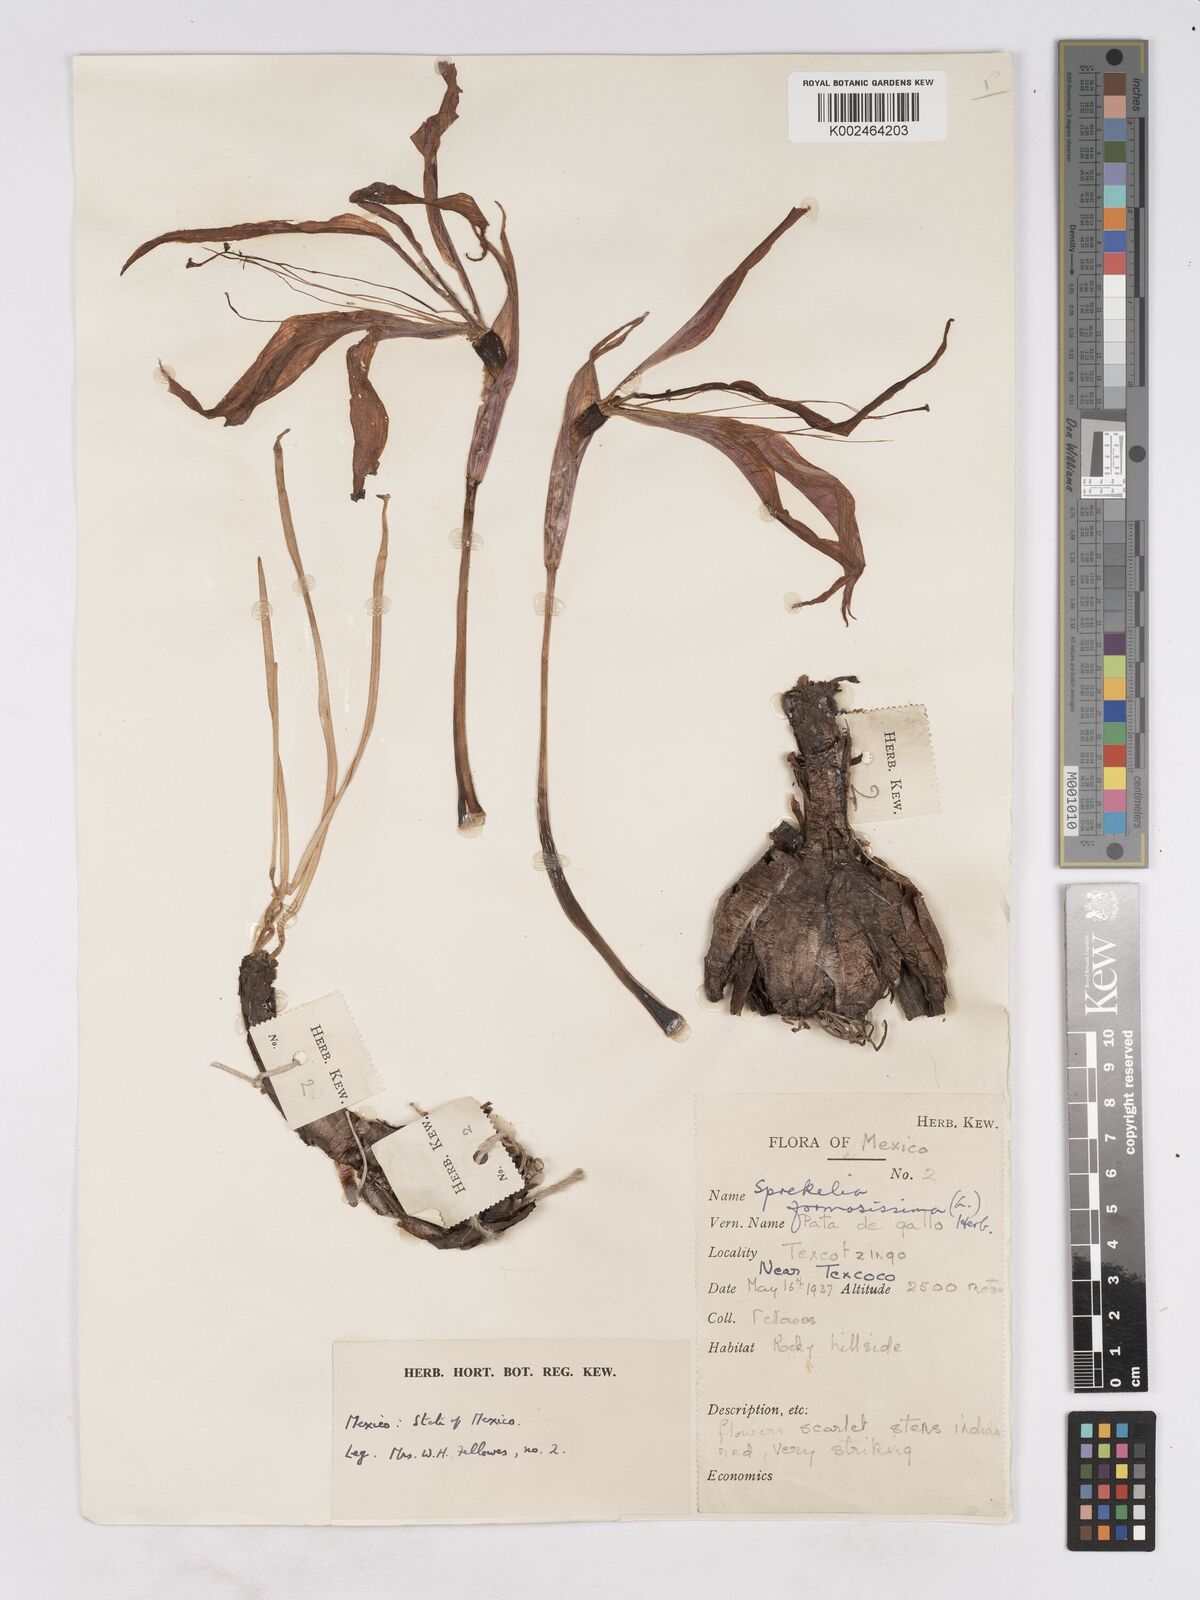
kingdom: Plantae
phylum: Tracheophyta
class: Liliopsida
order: Asparagales
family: Amaryllidaceae
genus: Sprekelia
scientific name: Sprekelia formosissima
